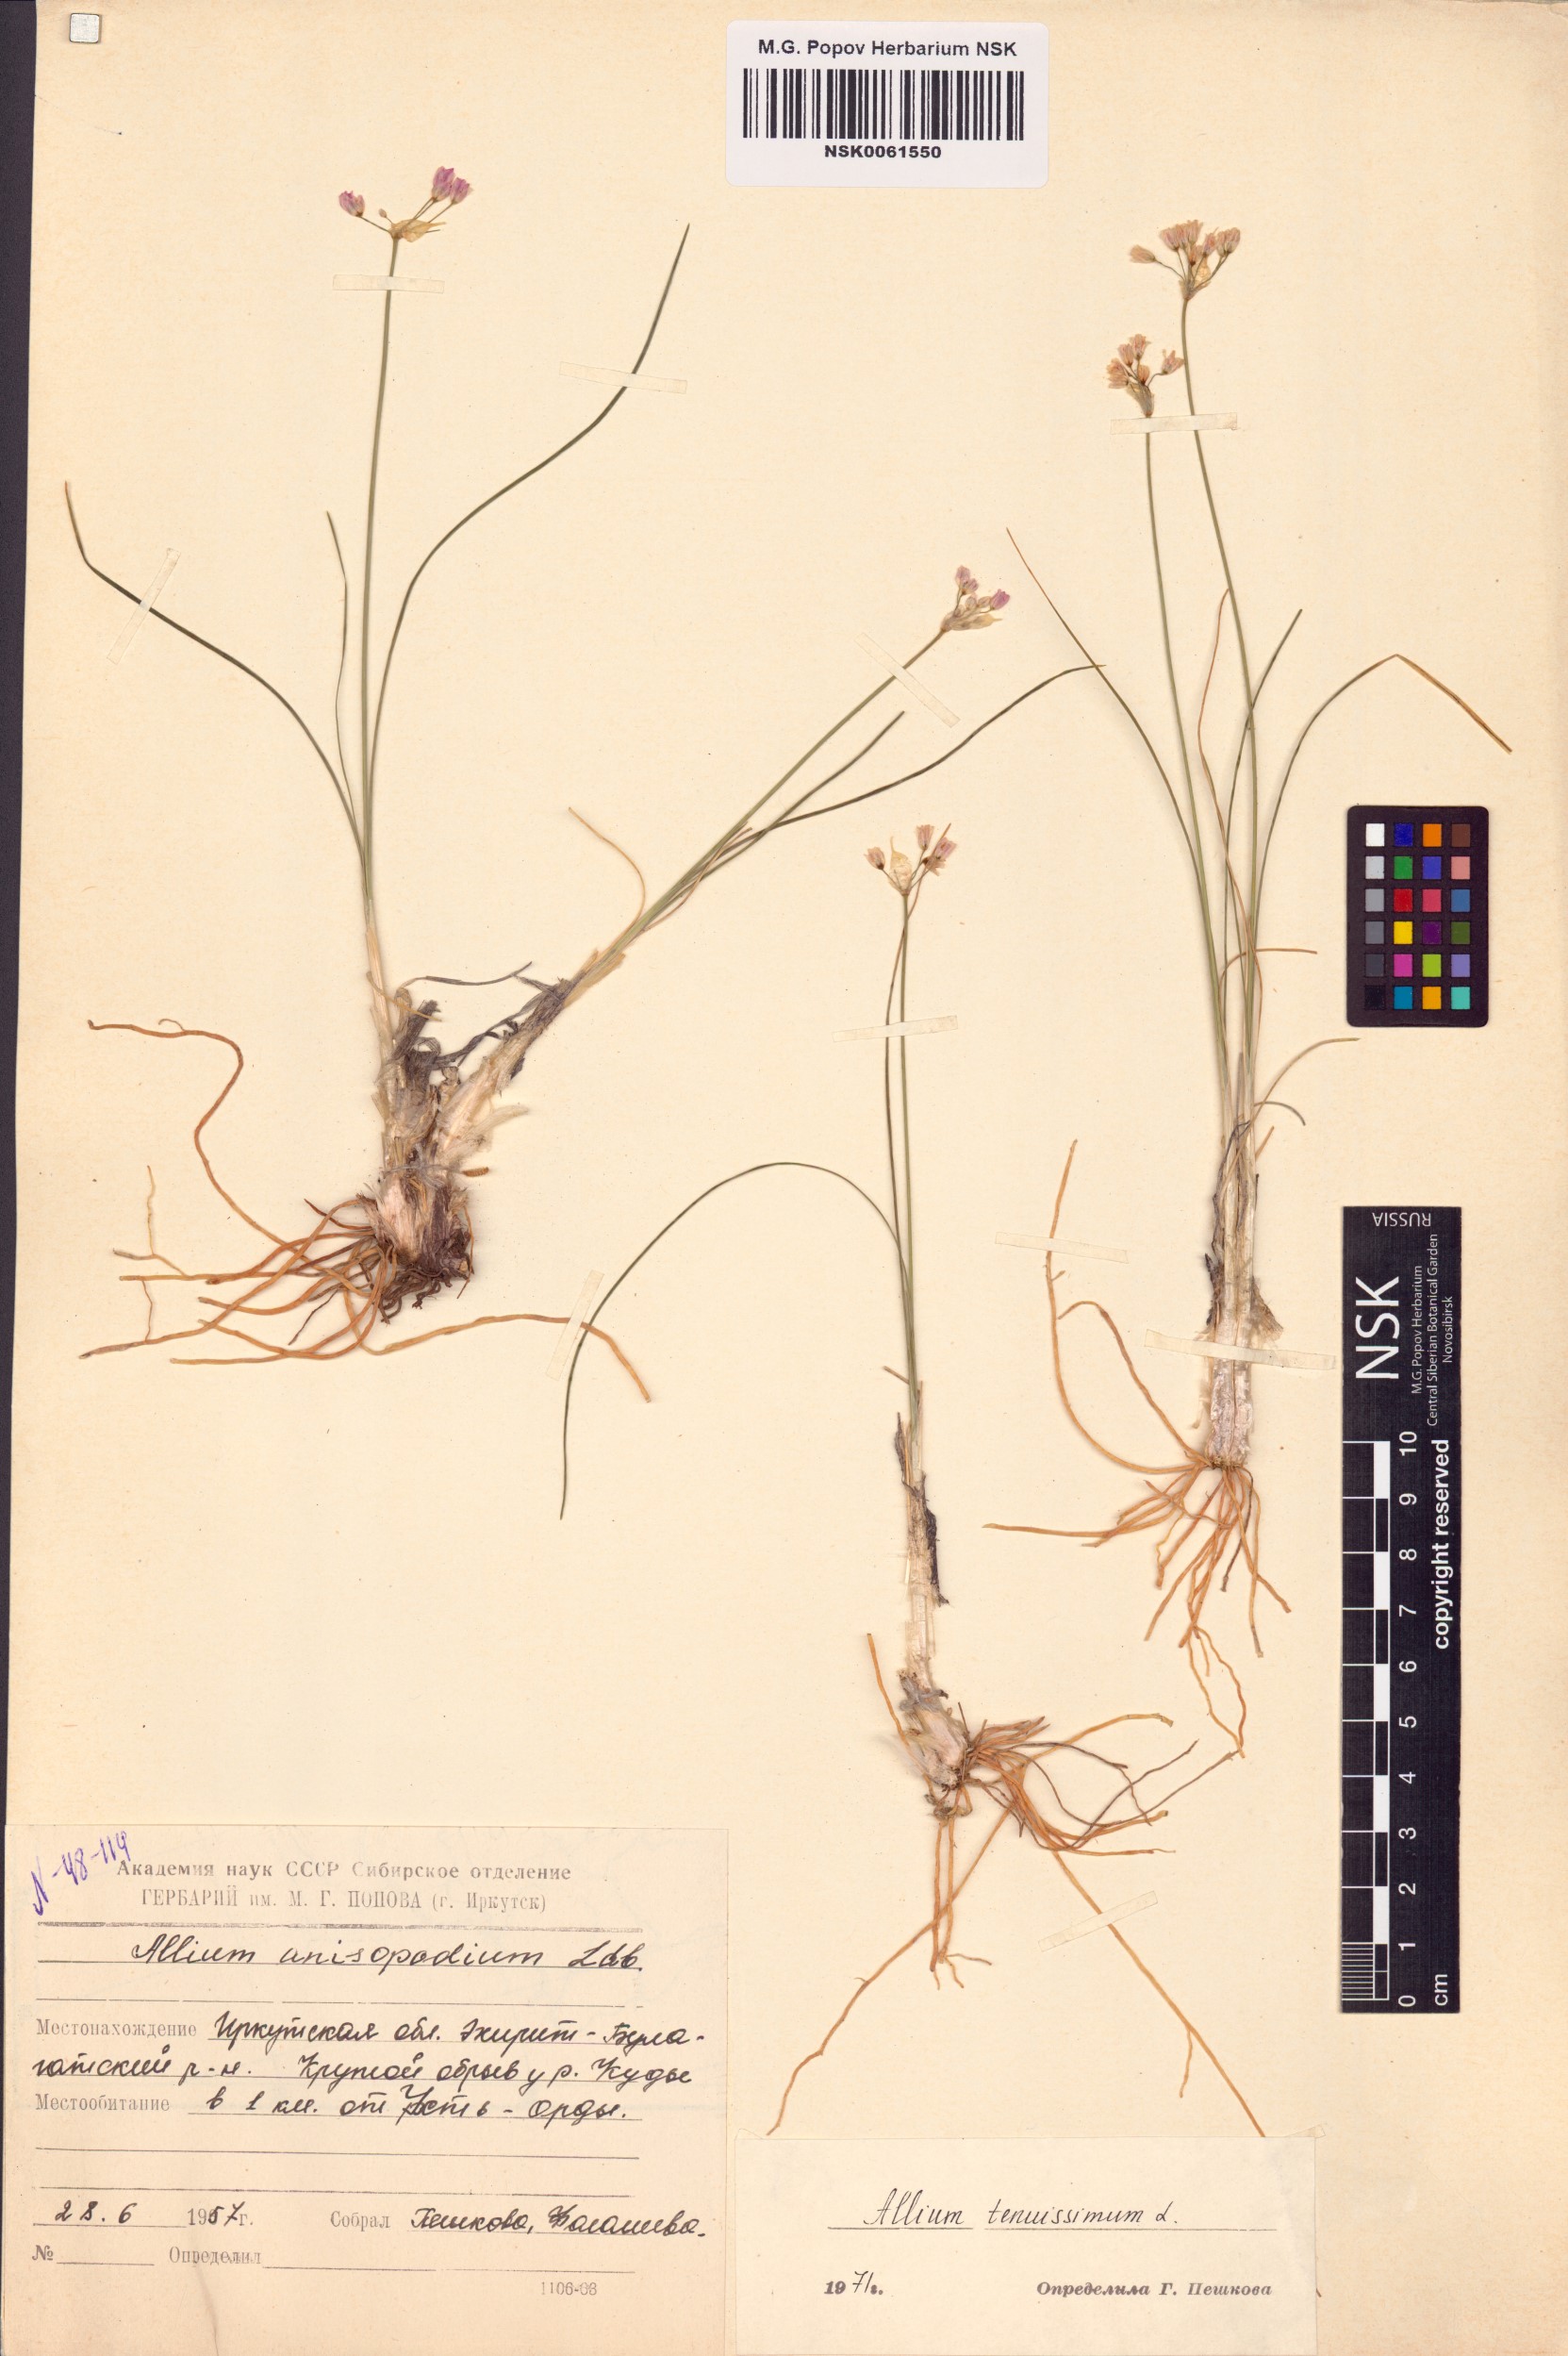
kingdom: Plantae
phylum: Tracheophyta
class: Liliopsida
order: Asparagales
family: Amaryllidaceae
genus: Allium
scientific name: Allium tenuissimum
